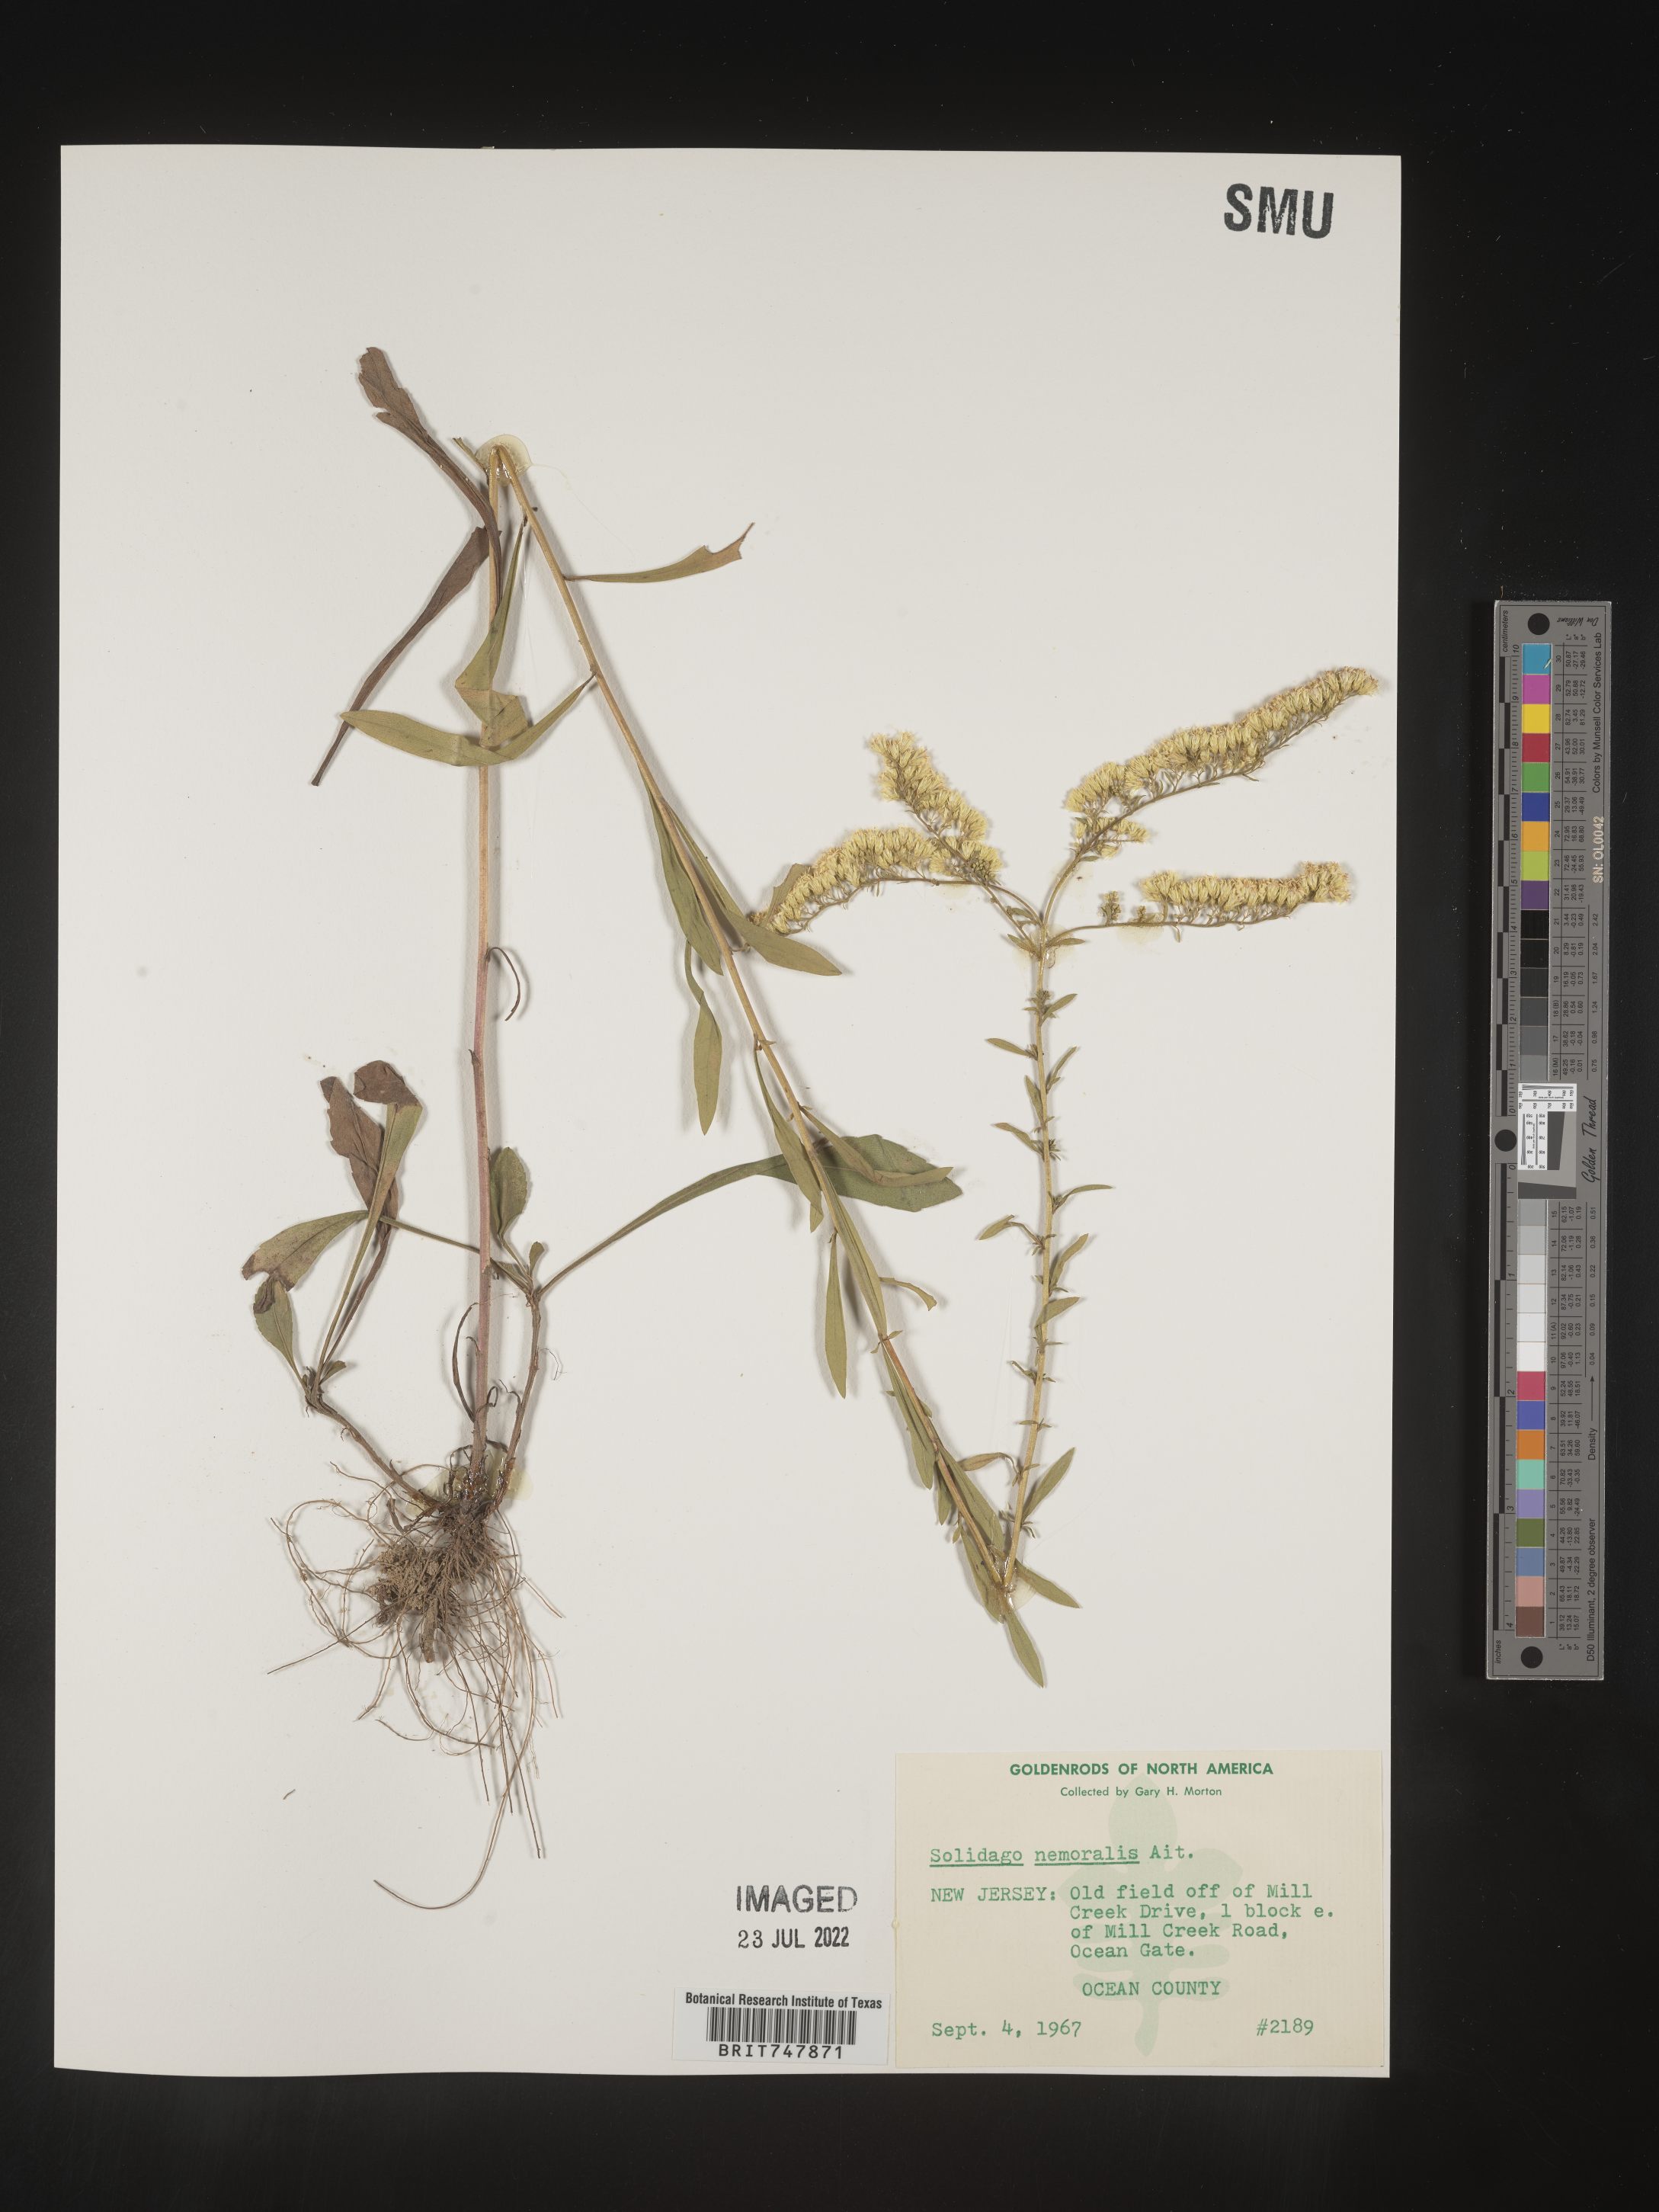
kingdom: Plantae
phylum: Tracheophyta
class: Magnoliopsida
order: Asterales
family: Asteraceae
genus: Solidago
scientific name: Solidago nemoralis
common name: Grey goldenrod
